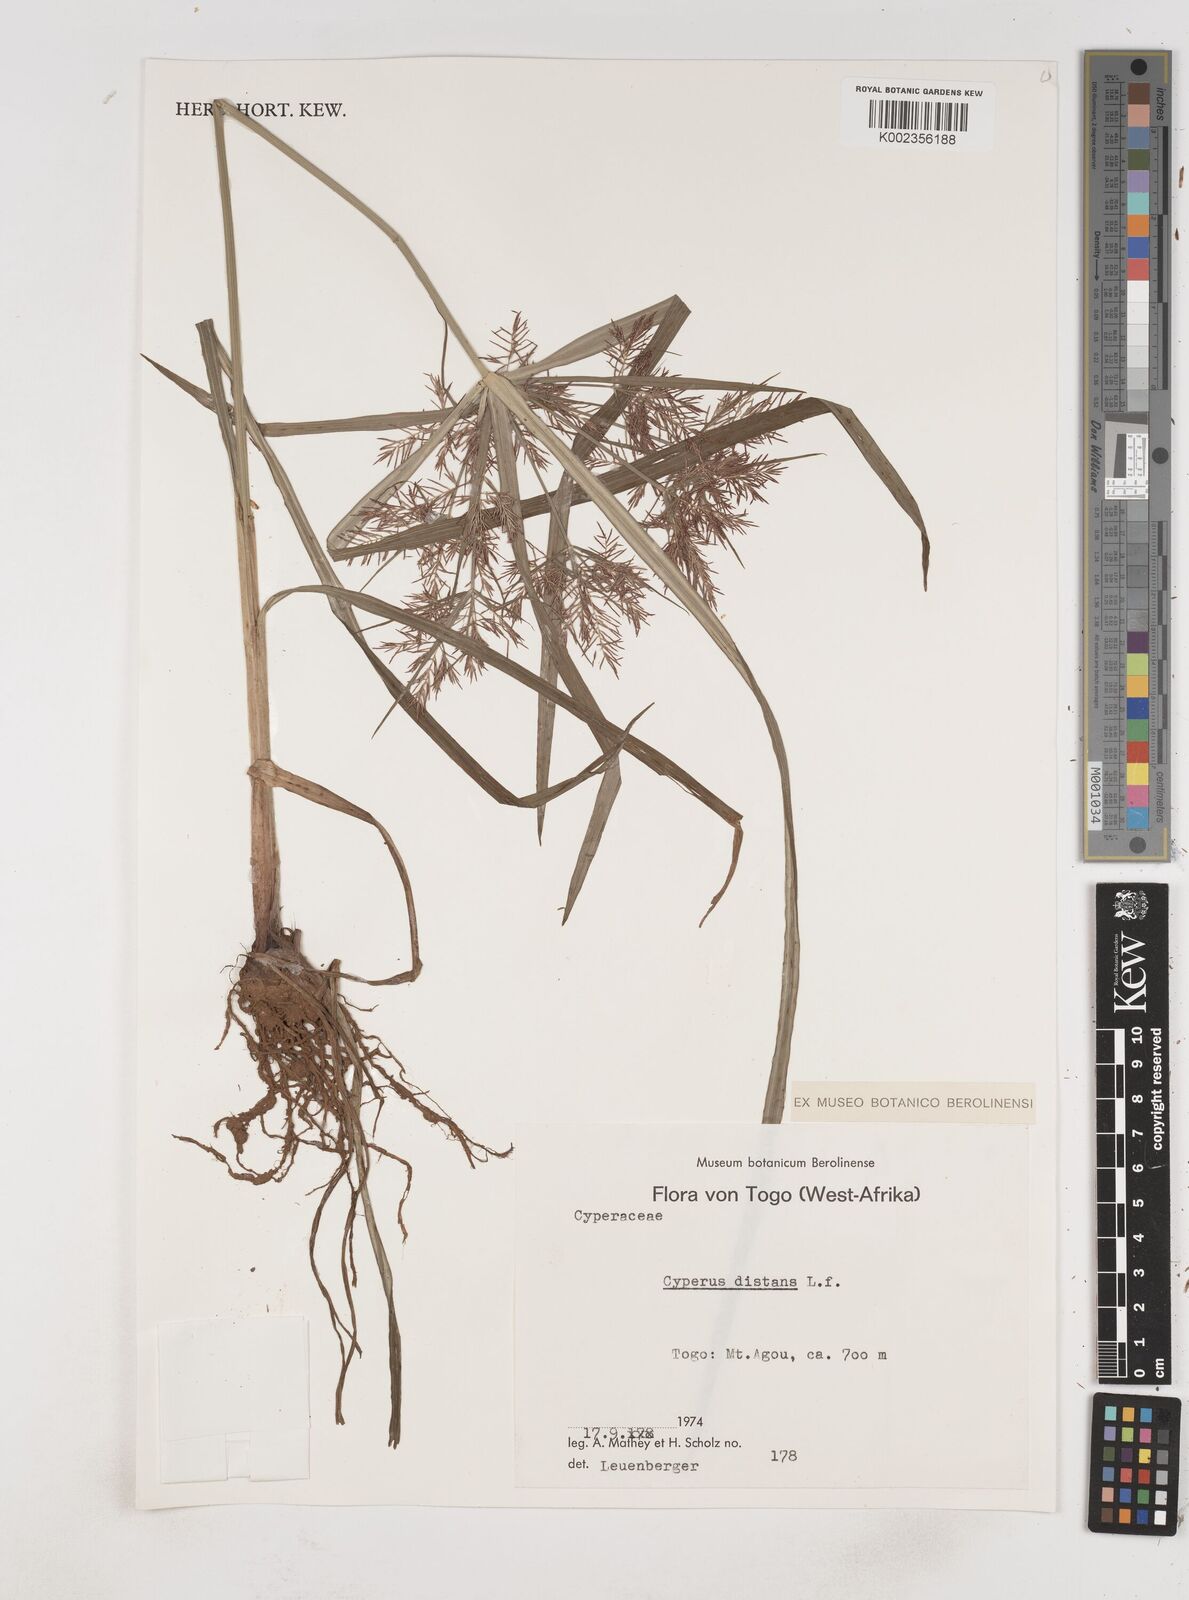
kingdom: Plantae
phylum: Tracheophyta
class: Liliopsida
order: Poales
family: Cyperaceae
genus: Cyperus
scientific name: Cyperus distans
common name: Slender cyperus
